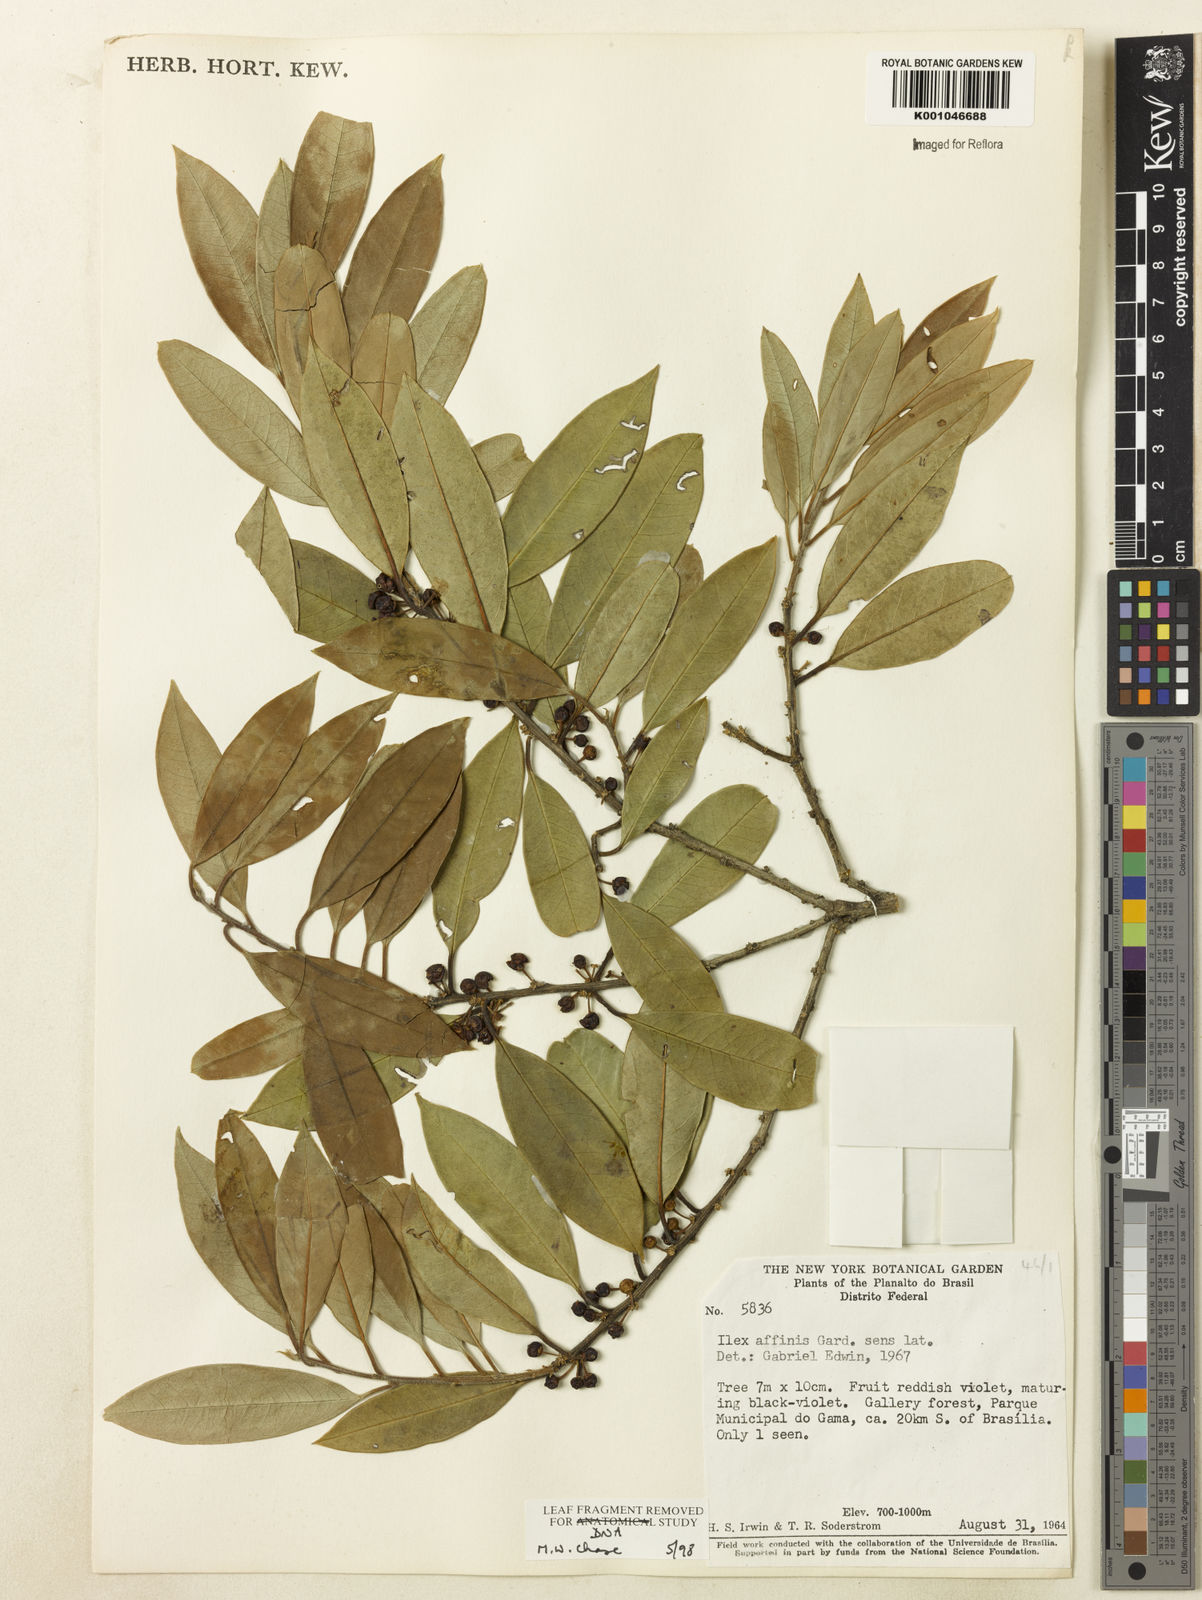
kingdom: Plantae
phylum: Tracheophyta
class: Magnoliopsida
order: Aquifoliales
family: Aquifoliaceae
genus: Ilex
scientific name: Ilex lundii
